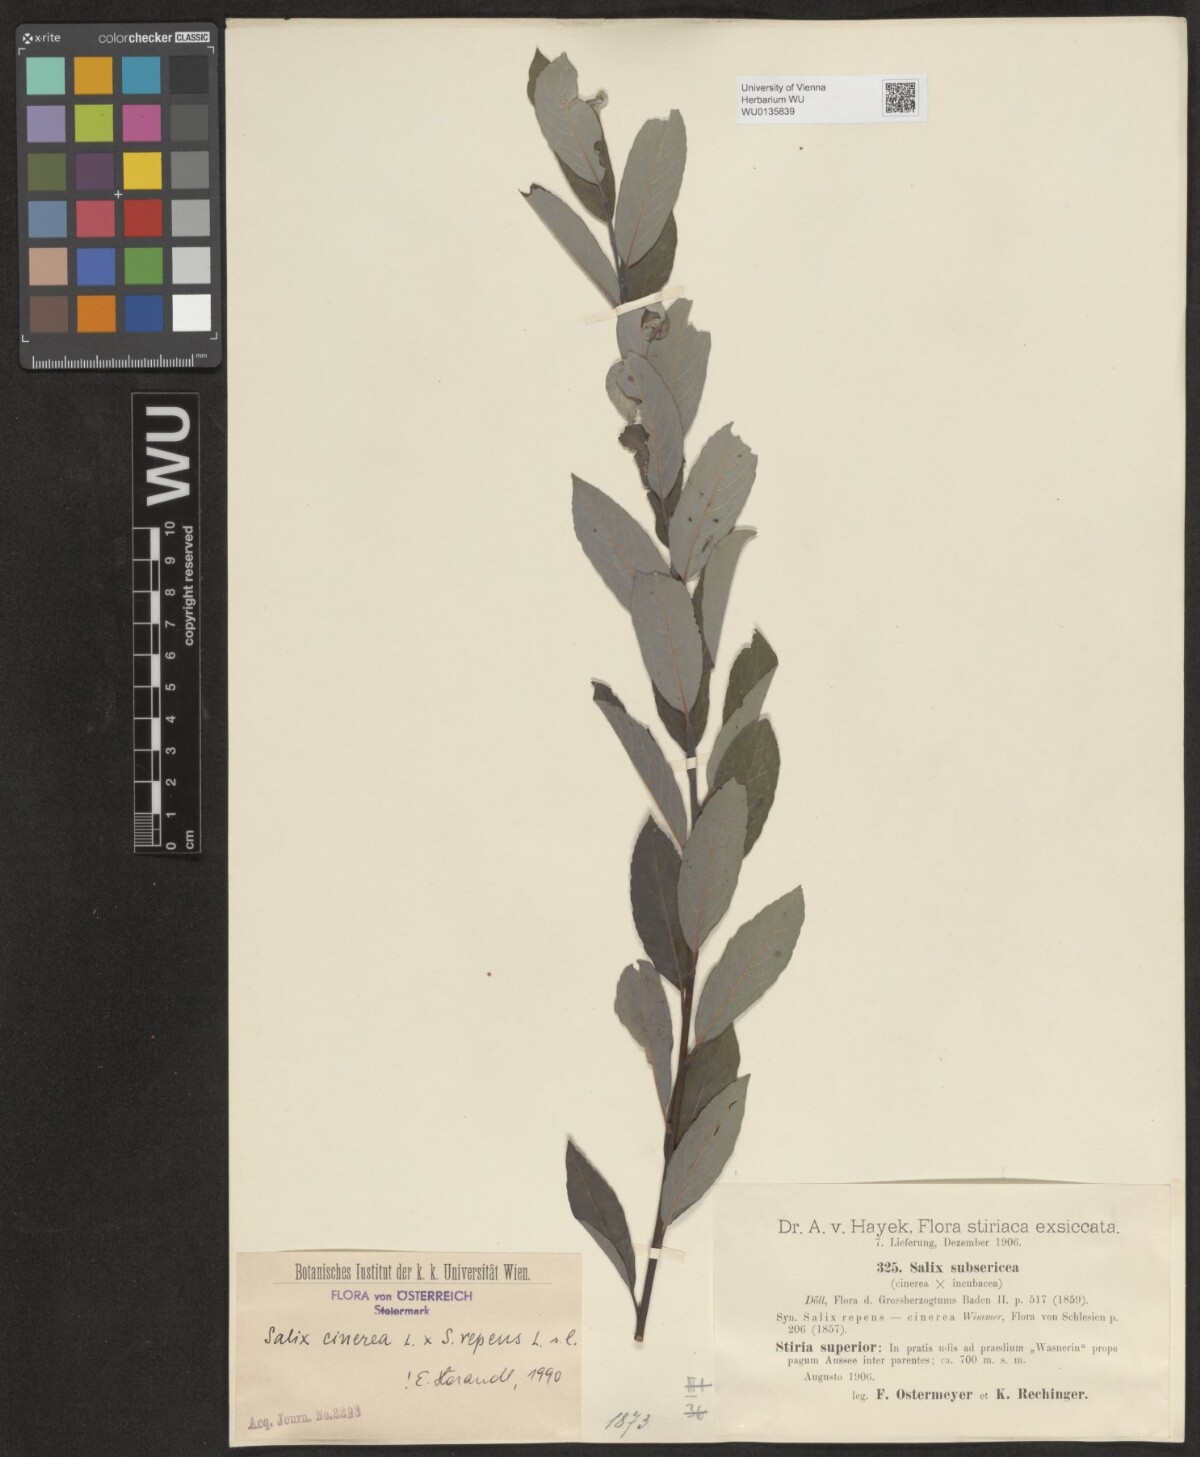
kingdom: Plantae
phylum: Tracheophyta
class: Magnoliopsida
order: Malpighiales
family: Salicaceae
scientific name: Salicaceae
